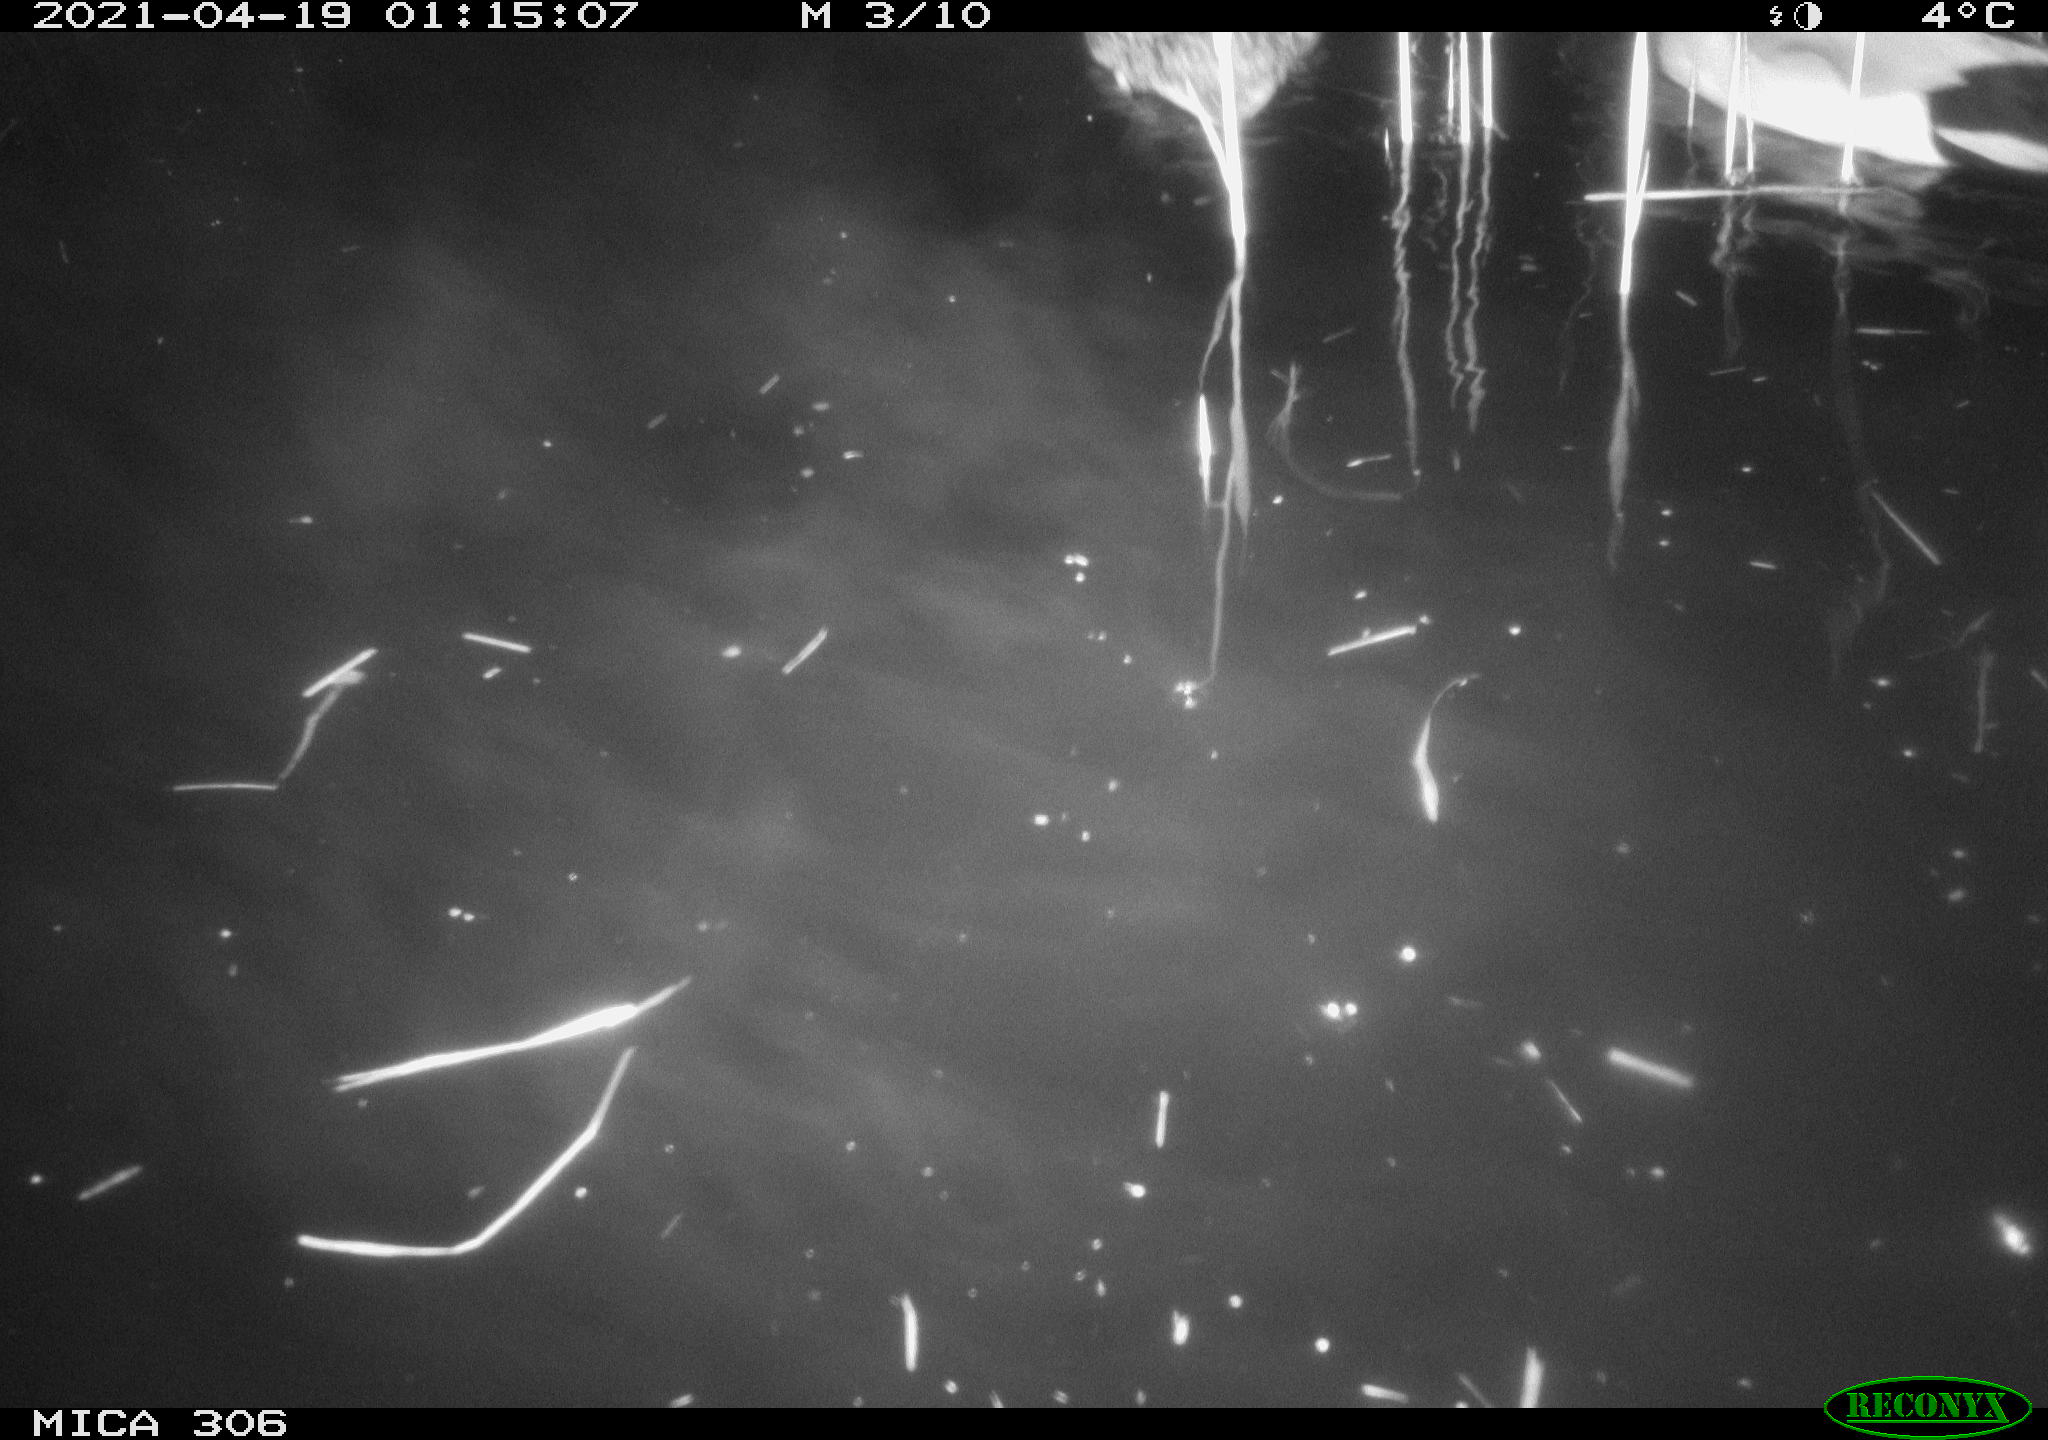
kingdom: Animalia
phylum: Chordata
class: Aves
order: Anseriformes
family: Anatidae
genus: Anas
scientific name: Anas
